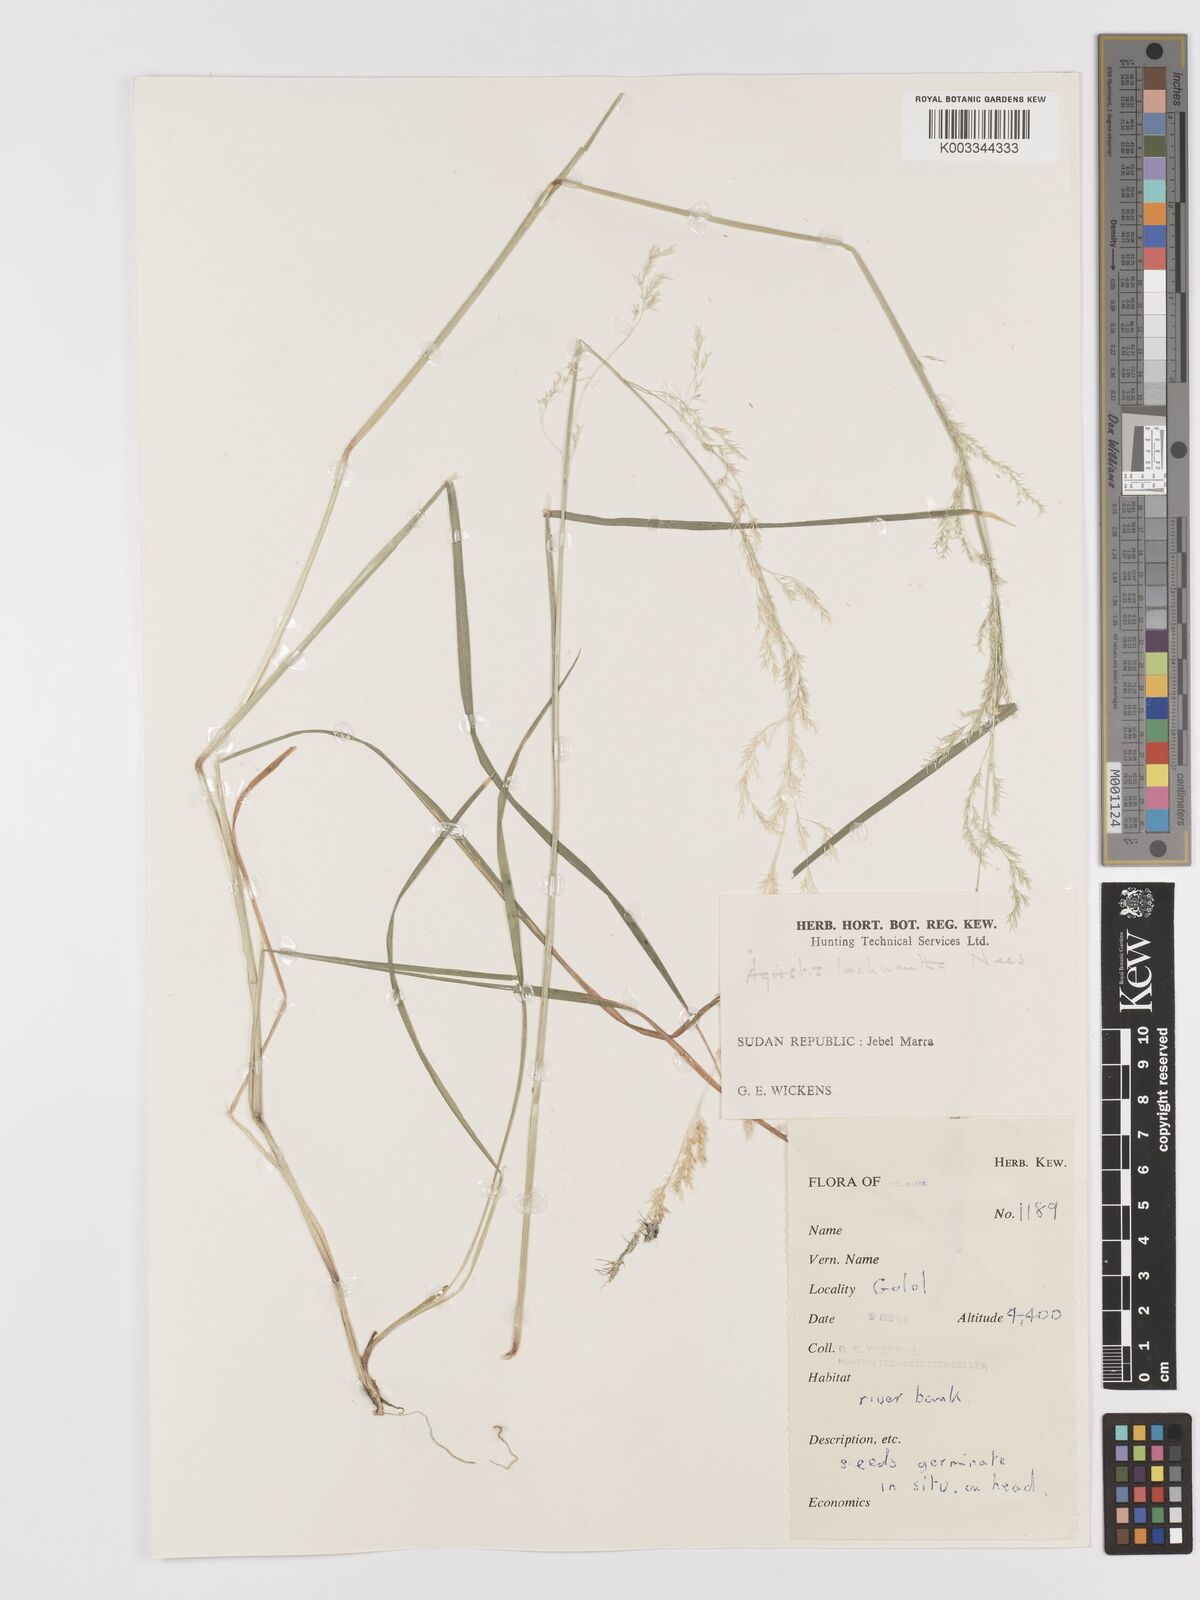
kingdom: Plantae
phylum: Tracheophyta
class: Liliopsida
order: Poales
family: Poaceae
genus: Lachnagrostis
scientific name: Lachnagrostis lachnantha
